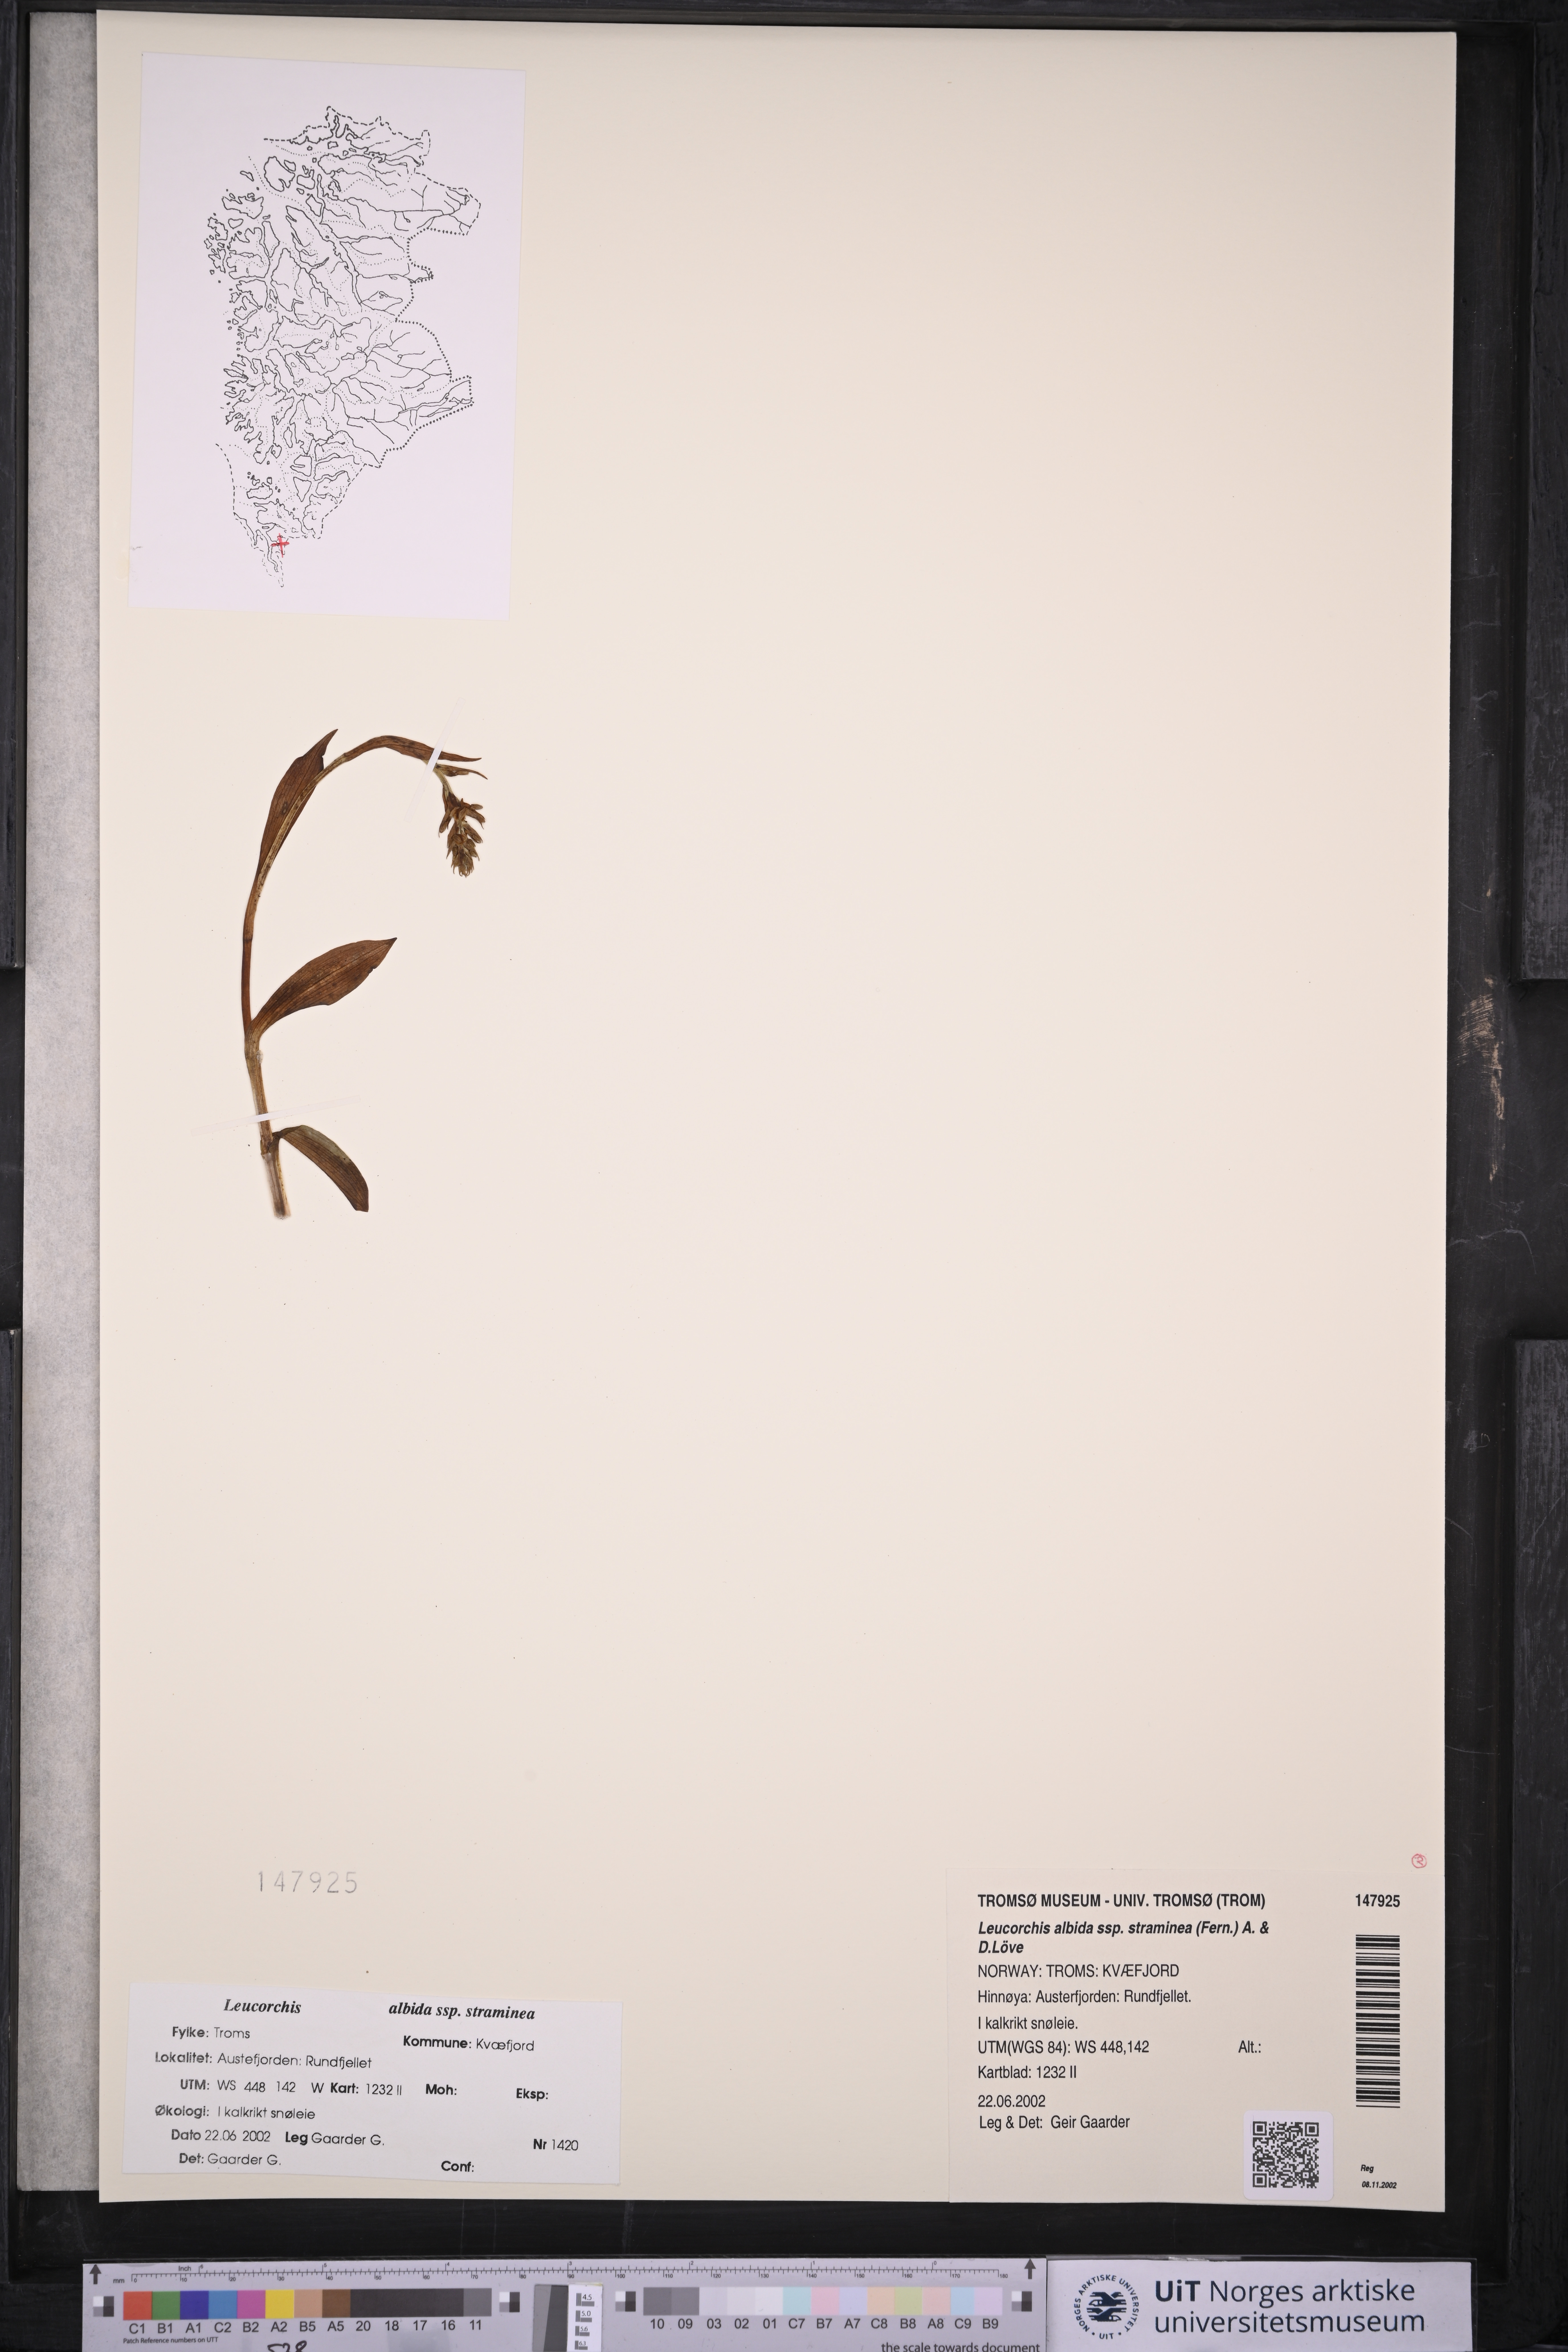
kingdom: Plantae
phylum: Tracheophyta
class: Liliopsida
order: Asparagales
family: Orchidaceae
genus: Pseudorchis
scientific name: Pseudorchis straminea
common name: Vanilla-scented bog orchid
